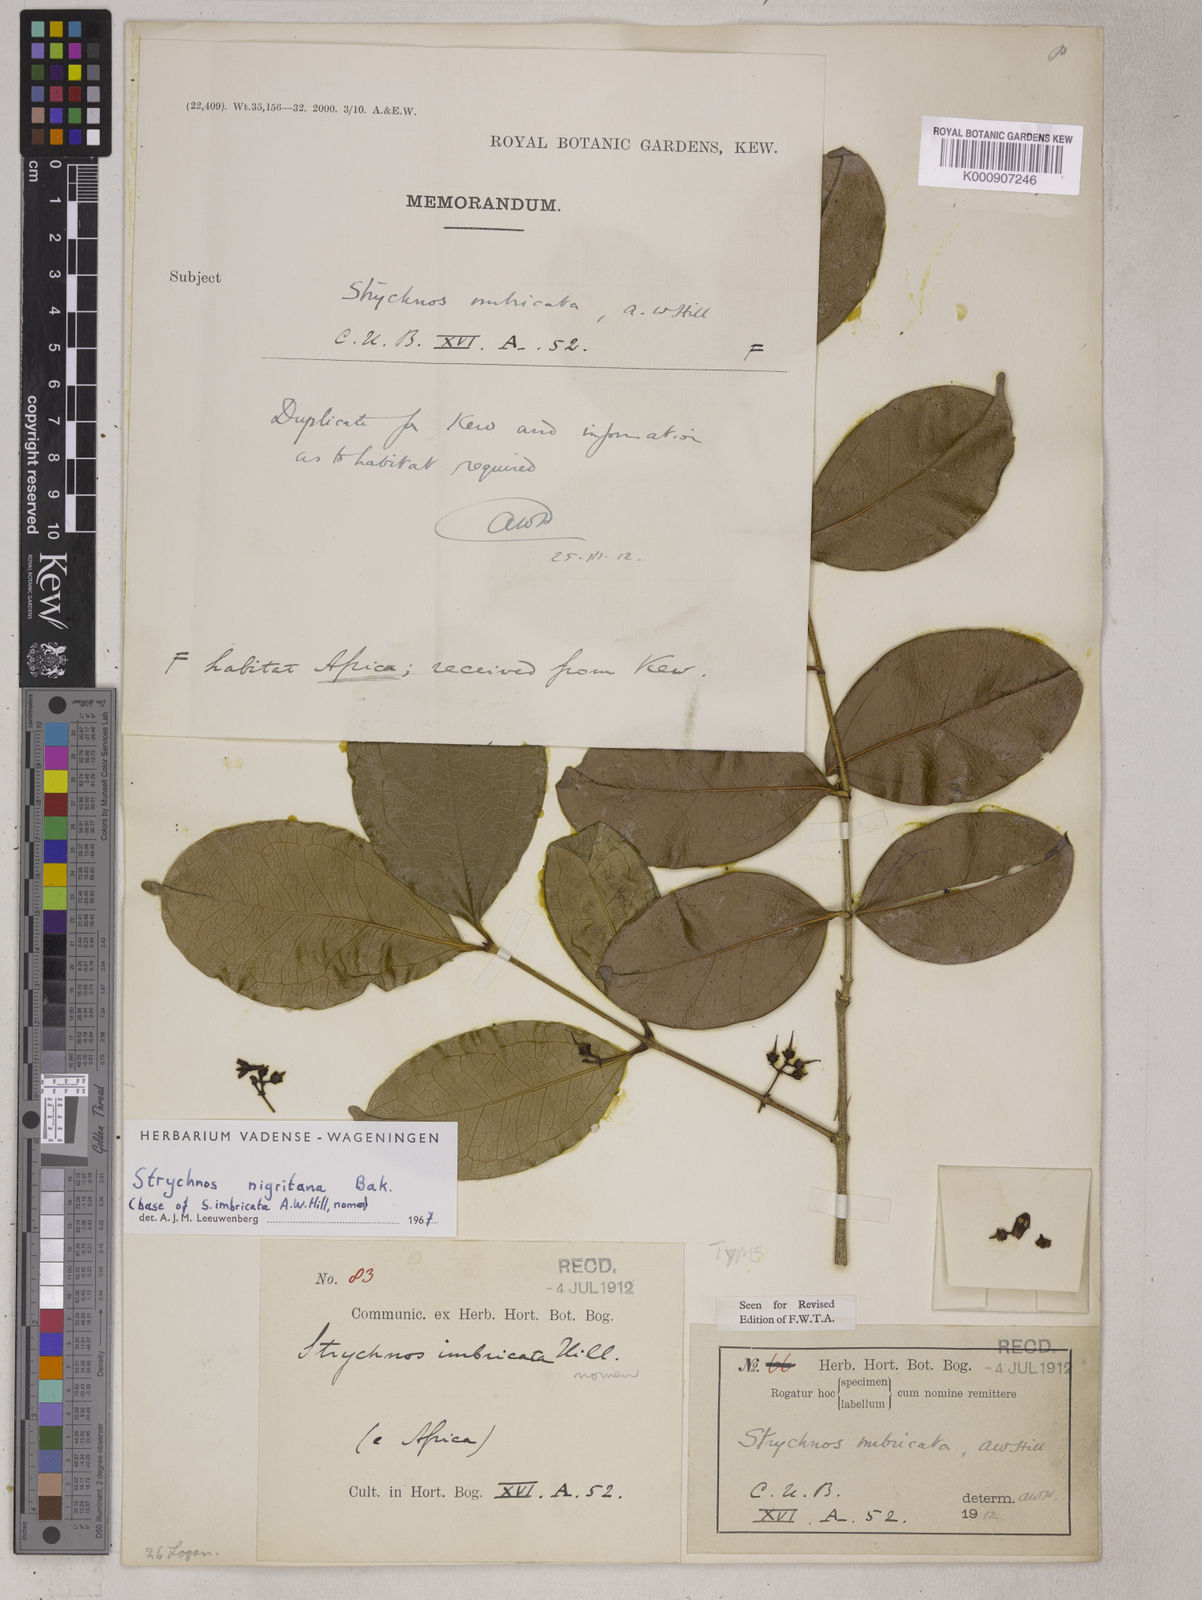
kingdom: Plantae
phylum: Tracheophyta
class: Magnoliopsida
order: Gentianales
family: Loganiaceae
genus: Strychnos
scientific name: Strychnos nigritana
